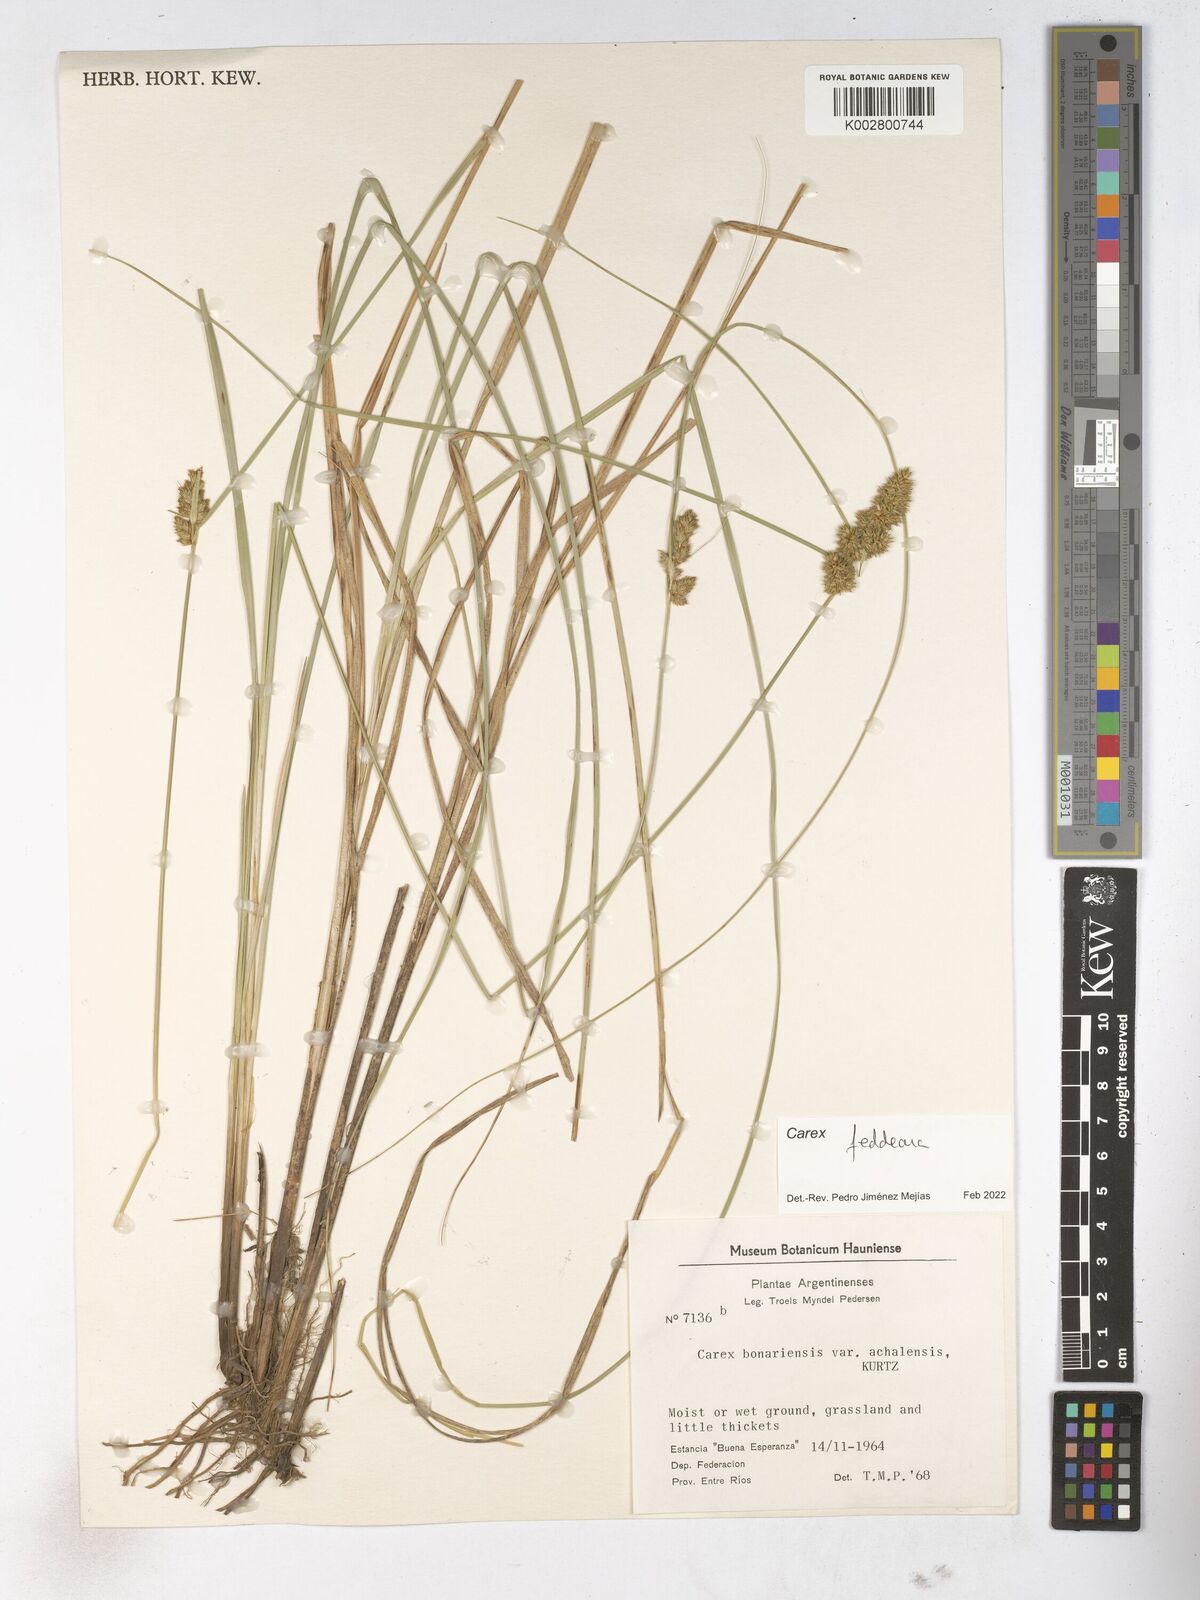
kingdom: Plantae
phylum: Tracheophyta
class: Liliopsida
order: Poales
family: Cyperaceae
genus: Carex
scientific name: Carex bonariensis
